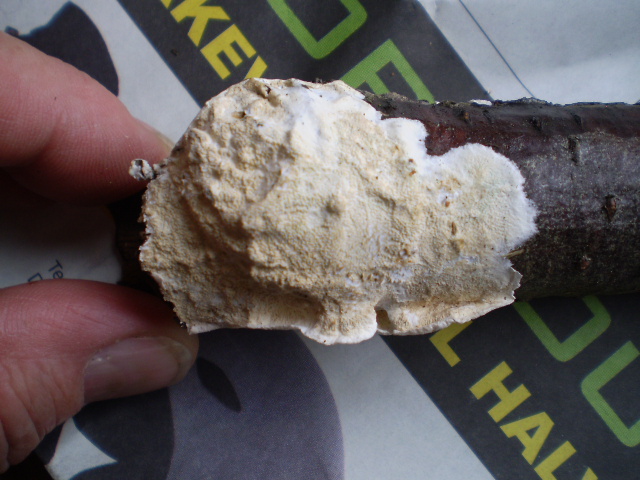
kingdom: Fungi
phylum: Basidiomycota
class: Agaricomycetes
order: Polyporales
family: Irpicaceae
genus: Byssomerulius
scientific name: Byssomerulius corium
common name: læder-åresvamp
